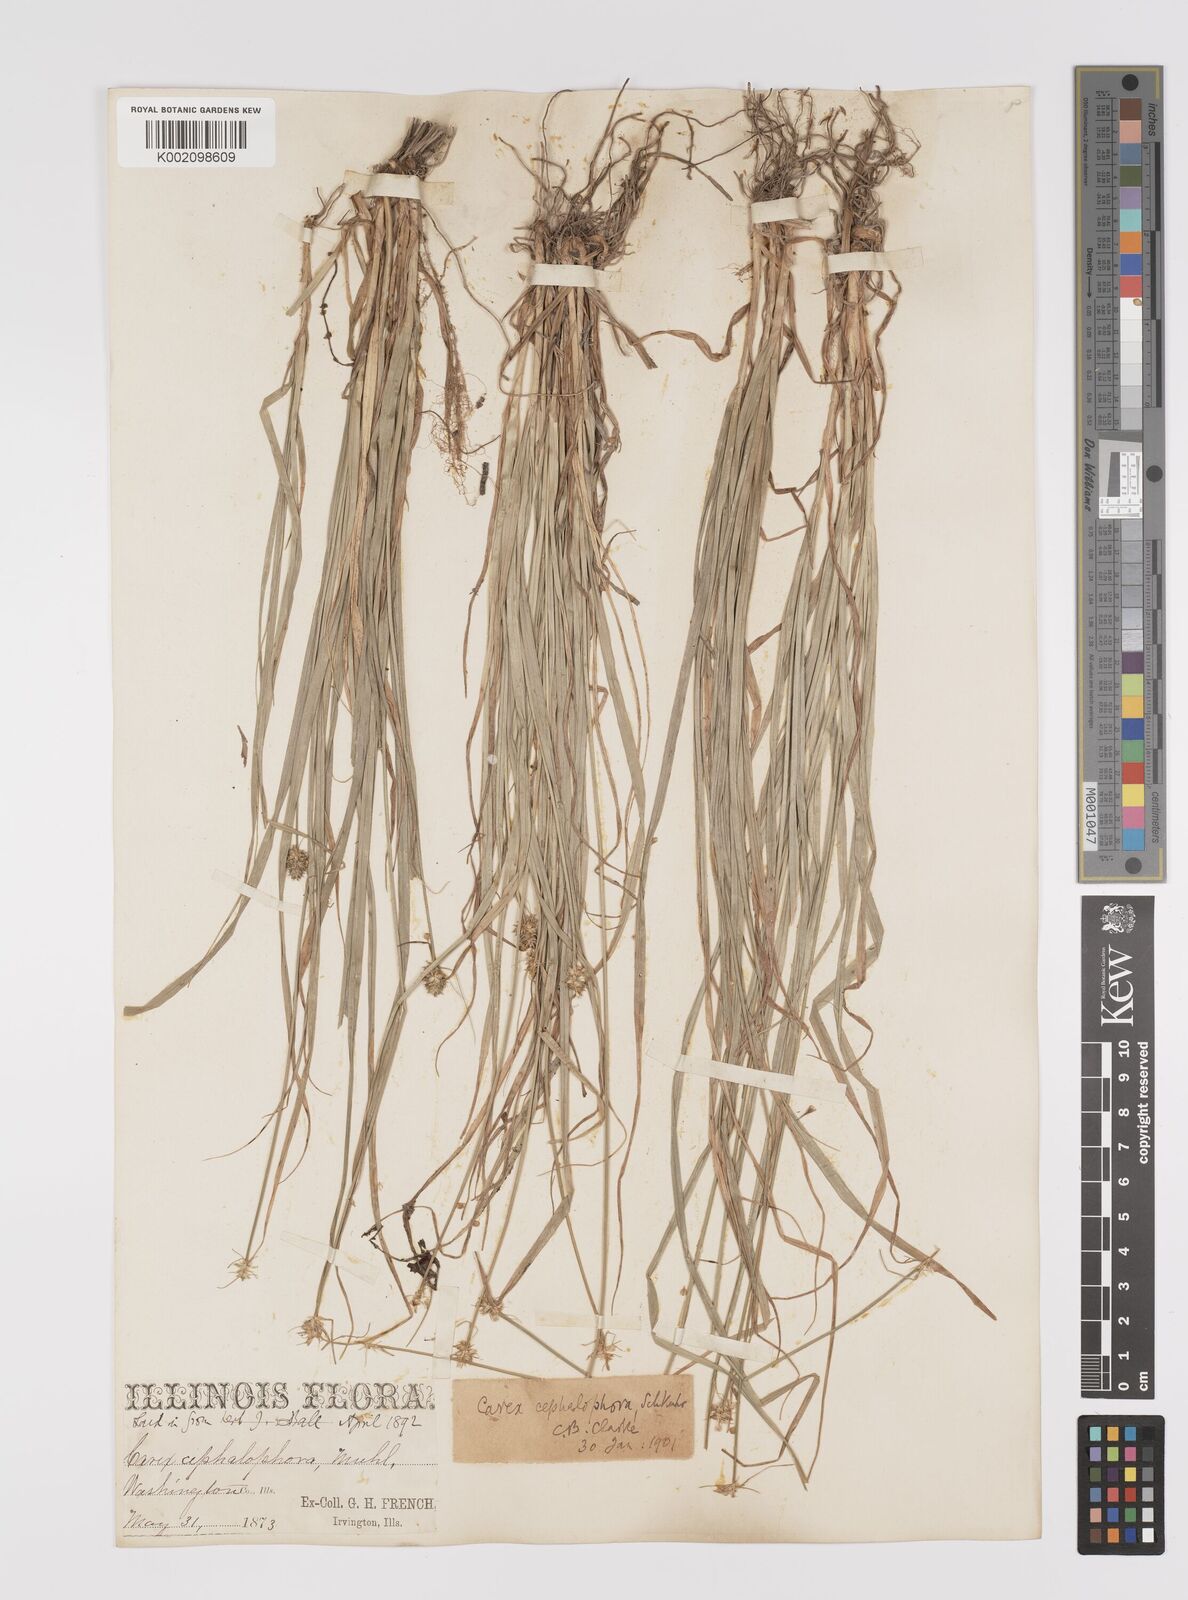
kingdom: Plantae
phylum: Tracheophyta
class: Liliopsida
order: Poales
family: Cyperaceae
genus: Carex
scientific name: Carex cephalophora
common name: Oval-headed sedge
